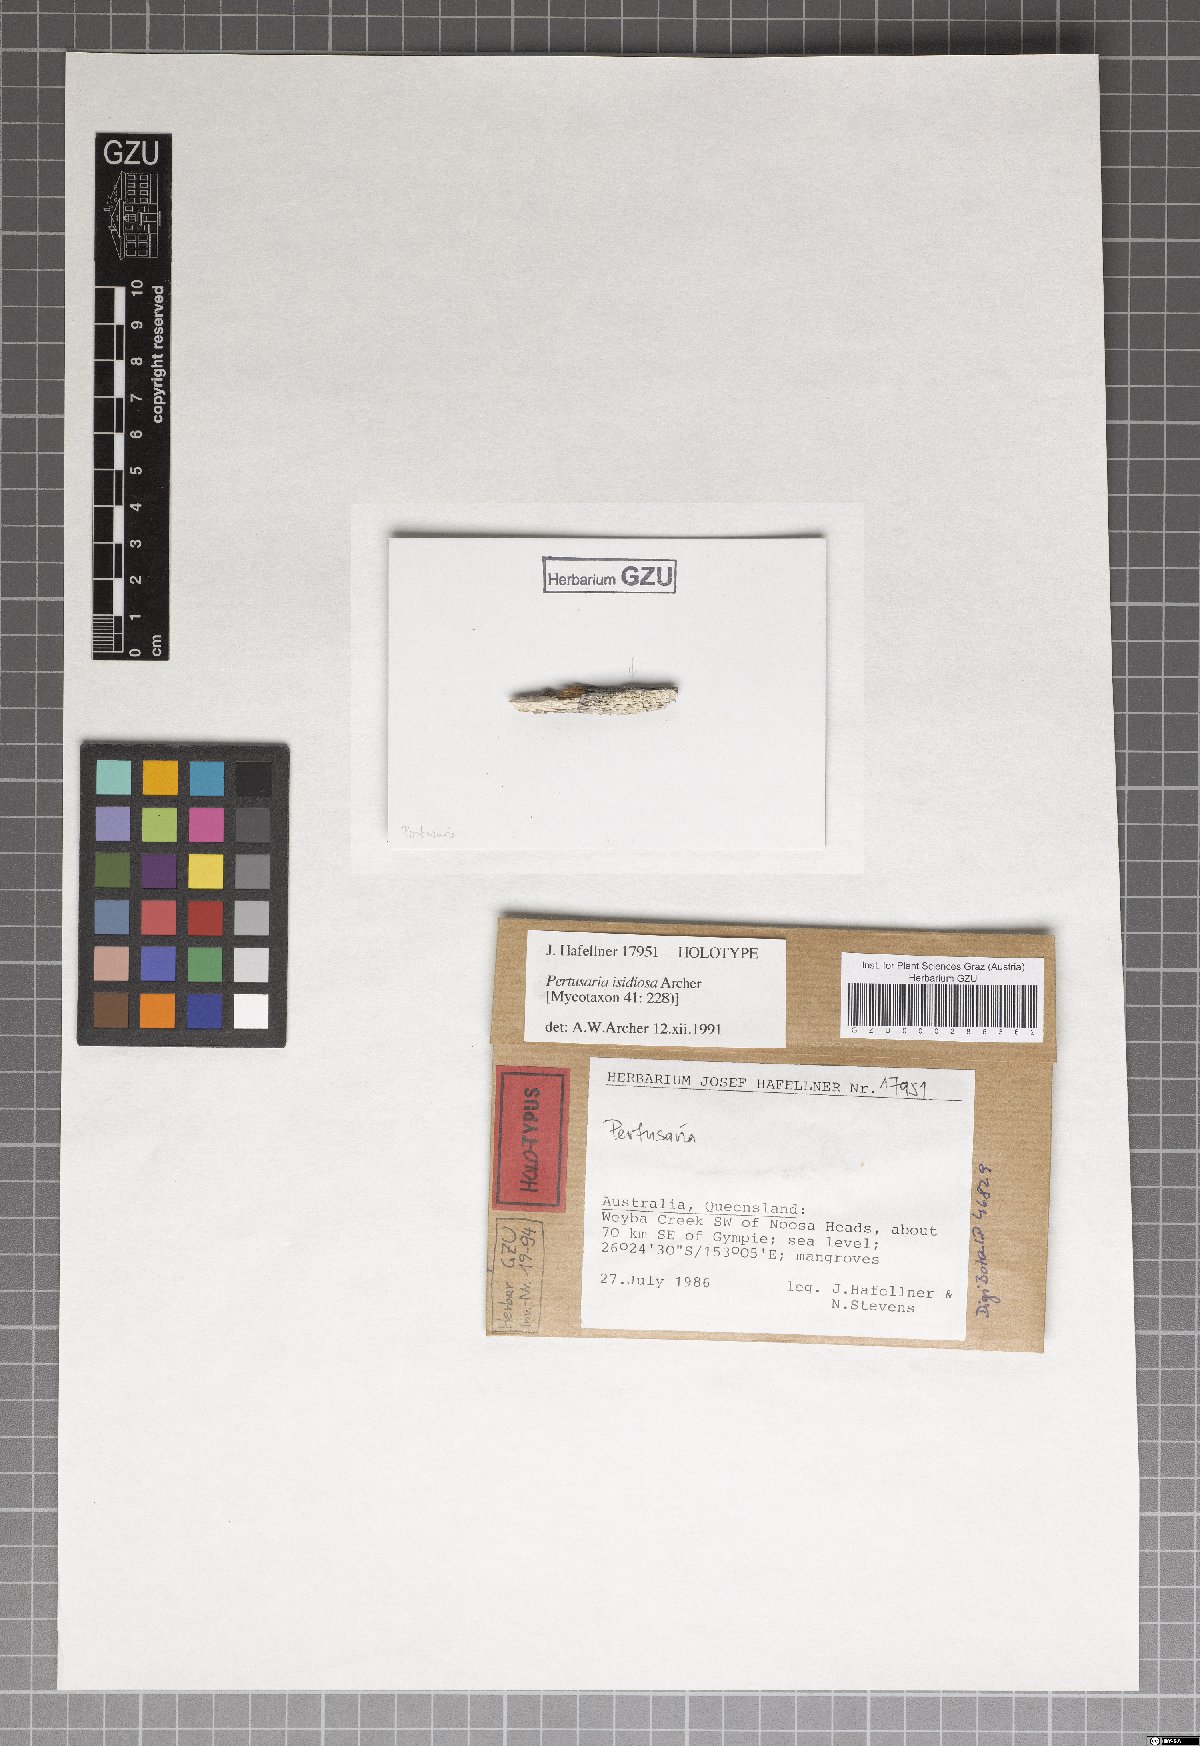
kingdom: Fungi
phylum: Ascomycota
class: Lecanoromycetes
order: Pertusariales
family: Pertusariaceae
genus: Pertusaria
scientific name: Pertusaria isidiosa
